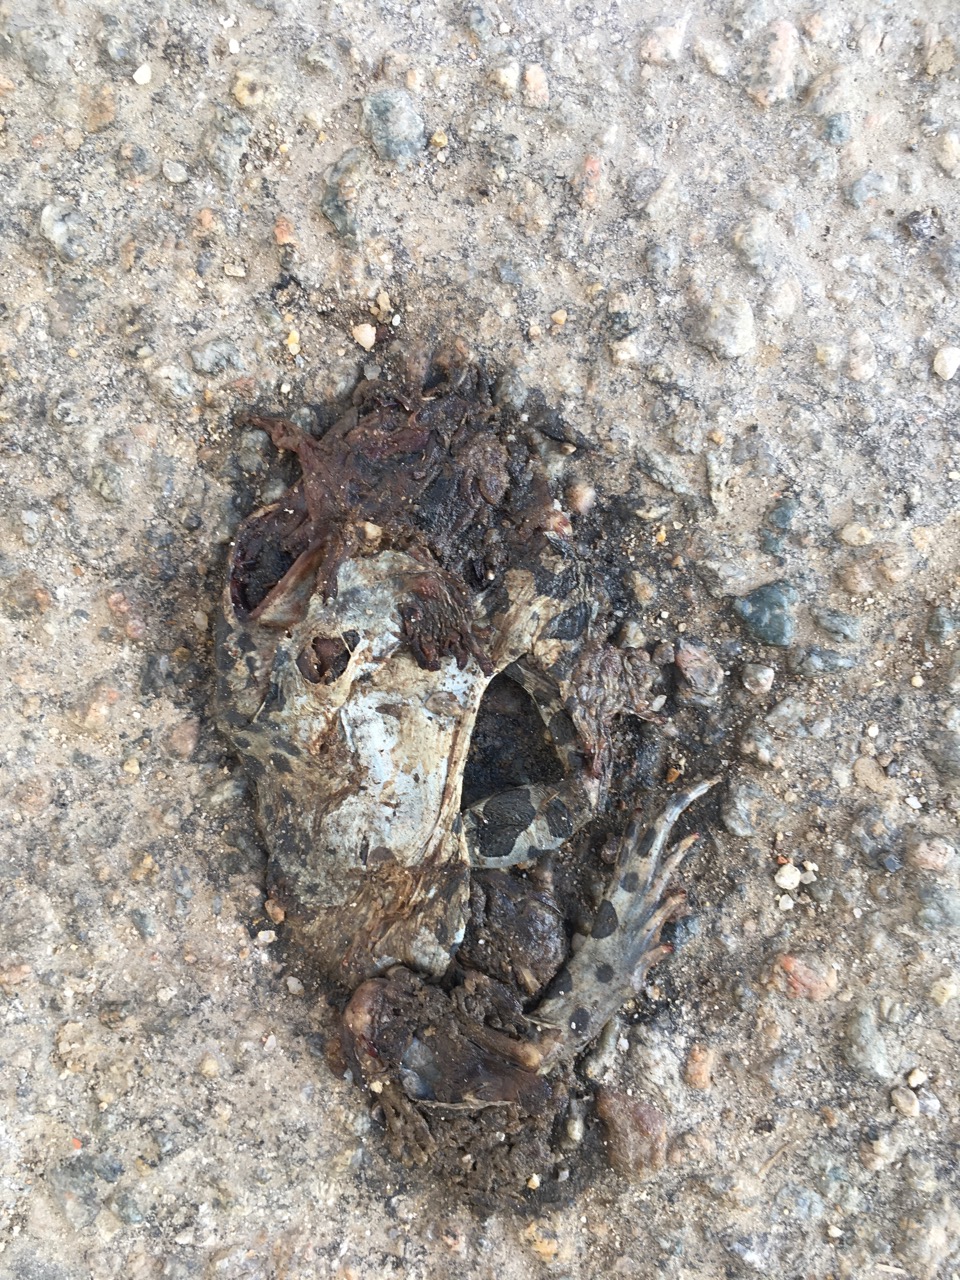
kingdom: Animalia
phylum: Chordata
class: Amphibia
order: Anura
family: Bufonidae
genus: Bufotes
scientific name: Bufotes viridis
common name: European green toad
